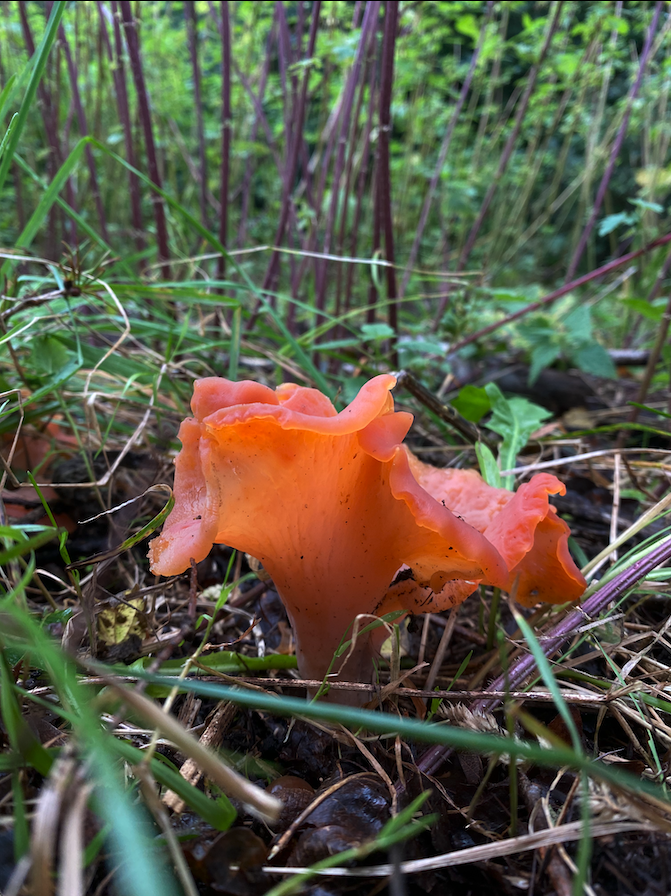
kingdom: Fungi
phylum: Basidiomycota
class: Agaricomycetes
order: Auriculariales
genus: Guepinia
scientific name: Guepinia helvelloides
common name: bævretunge
